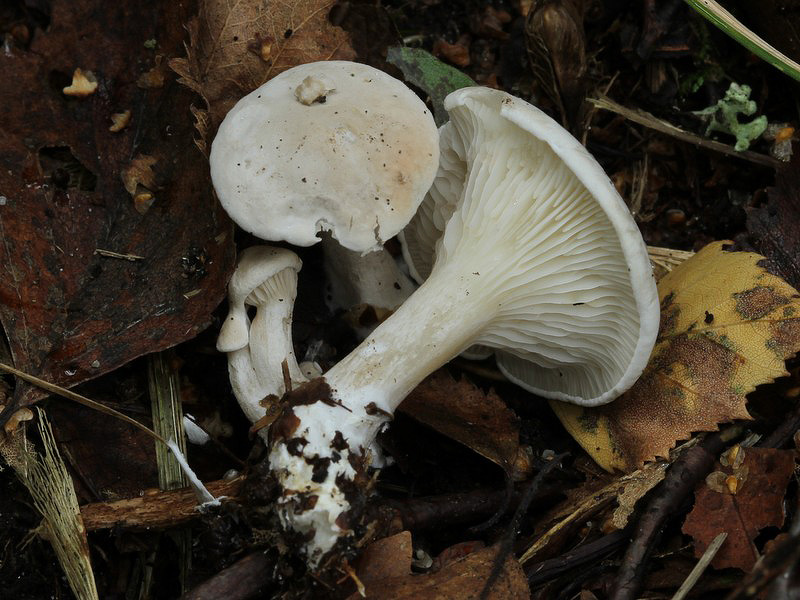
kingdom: Fungi
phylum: Basidiomycota
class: Agaricomycetes
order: Agaricales
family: Entolomataceae
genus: Clitopilus
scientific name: Clitopilus prunulus
